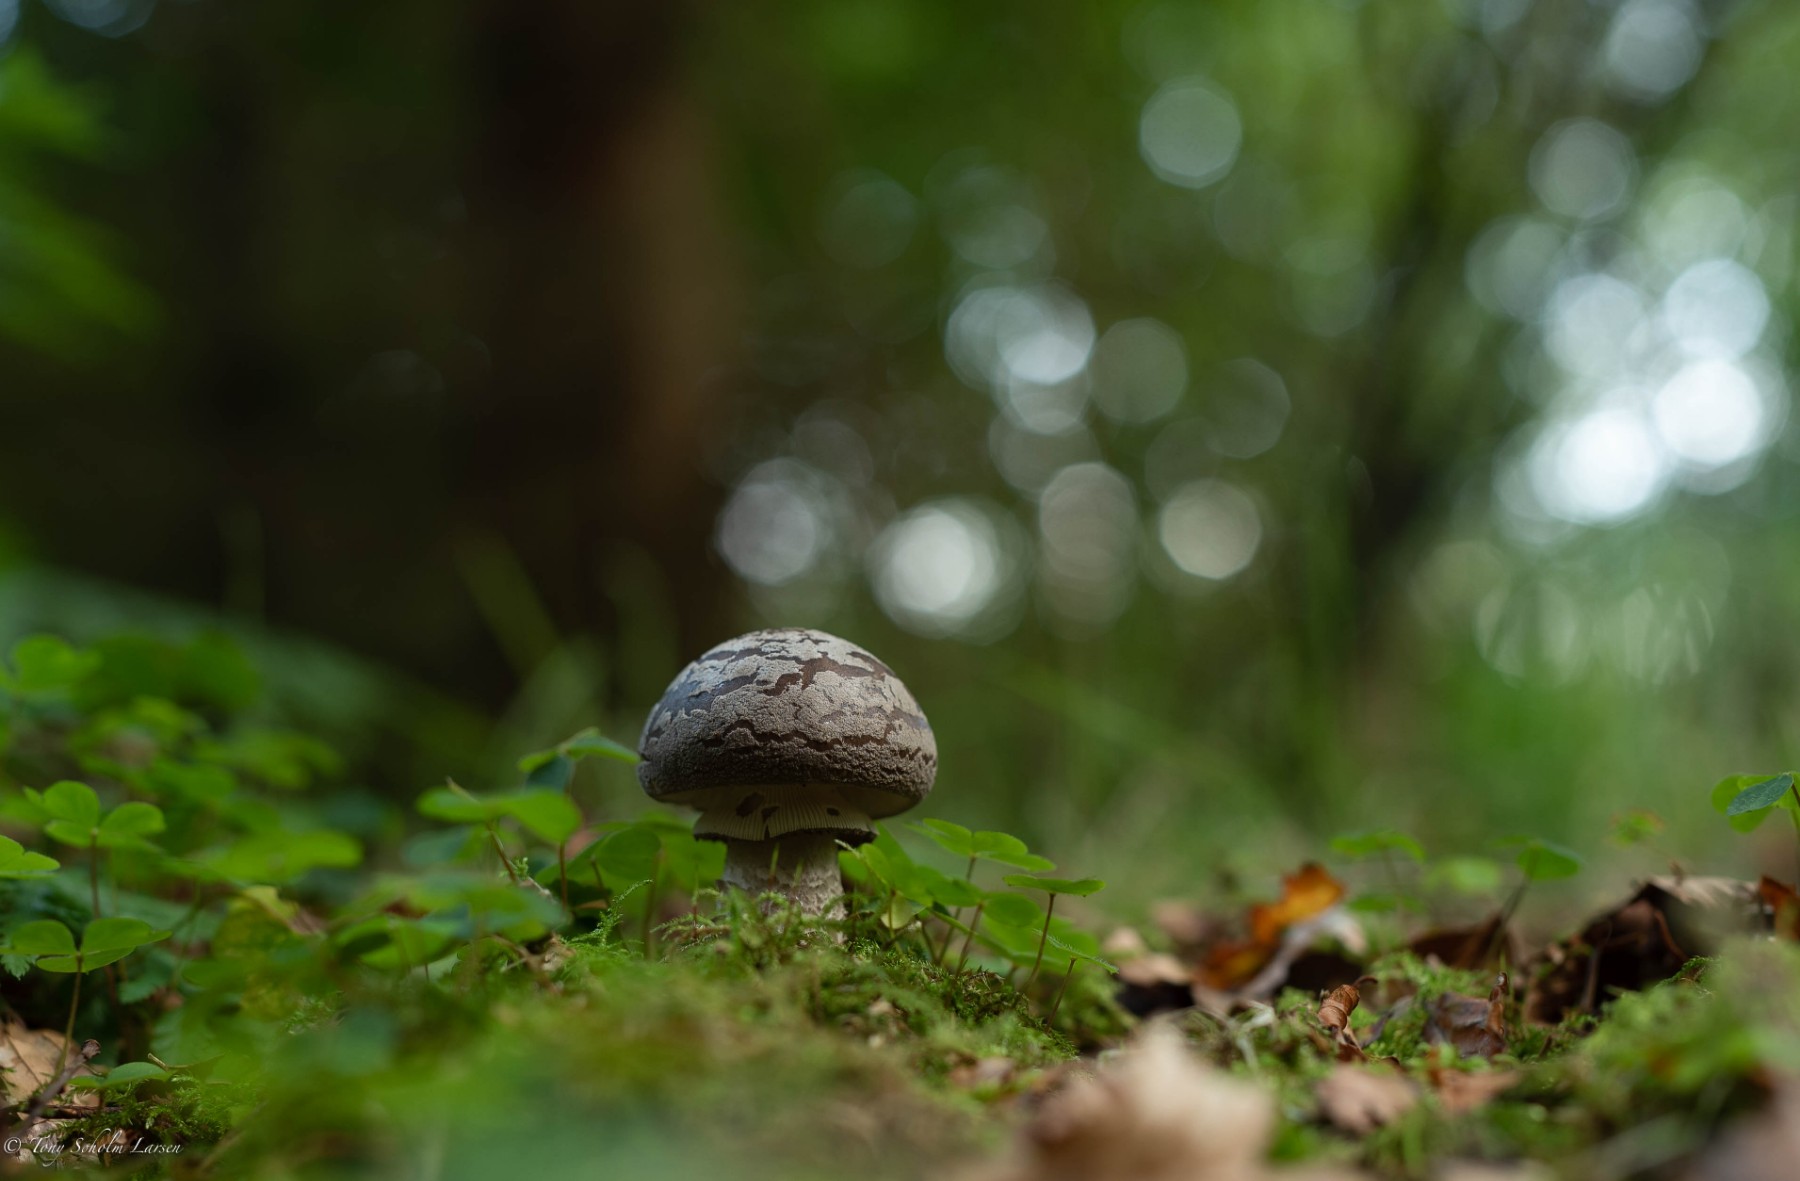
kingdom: Fungi
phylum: Basidiomycota
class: Agaricomycetes
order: Agaricales
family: Amanitaceae
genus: Amanita
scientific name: Amanita
